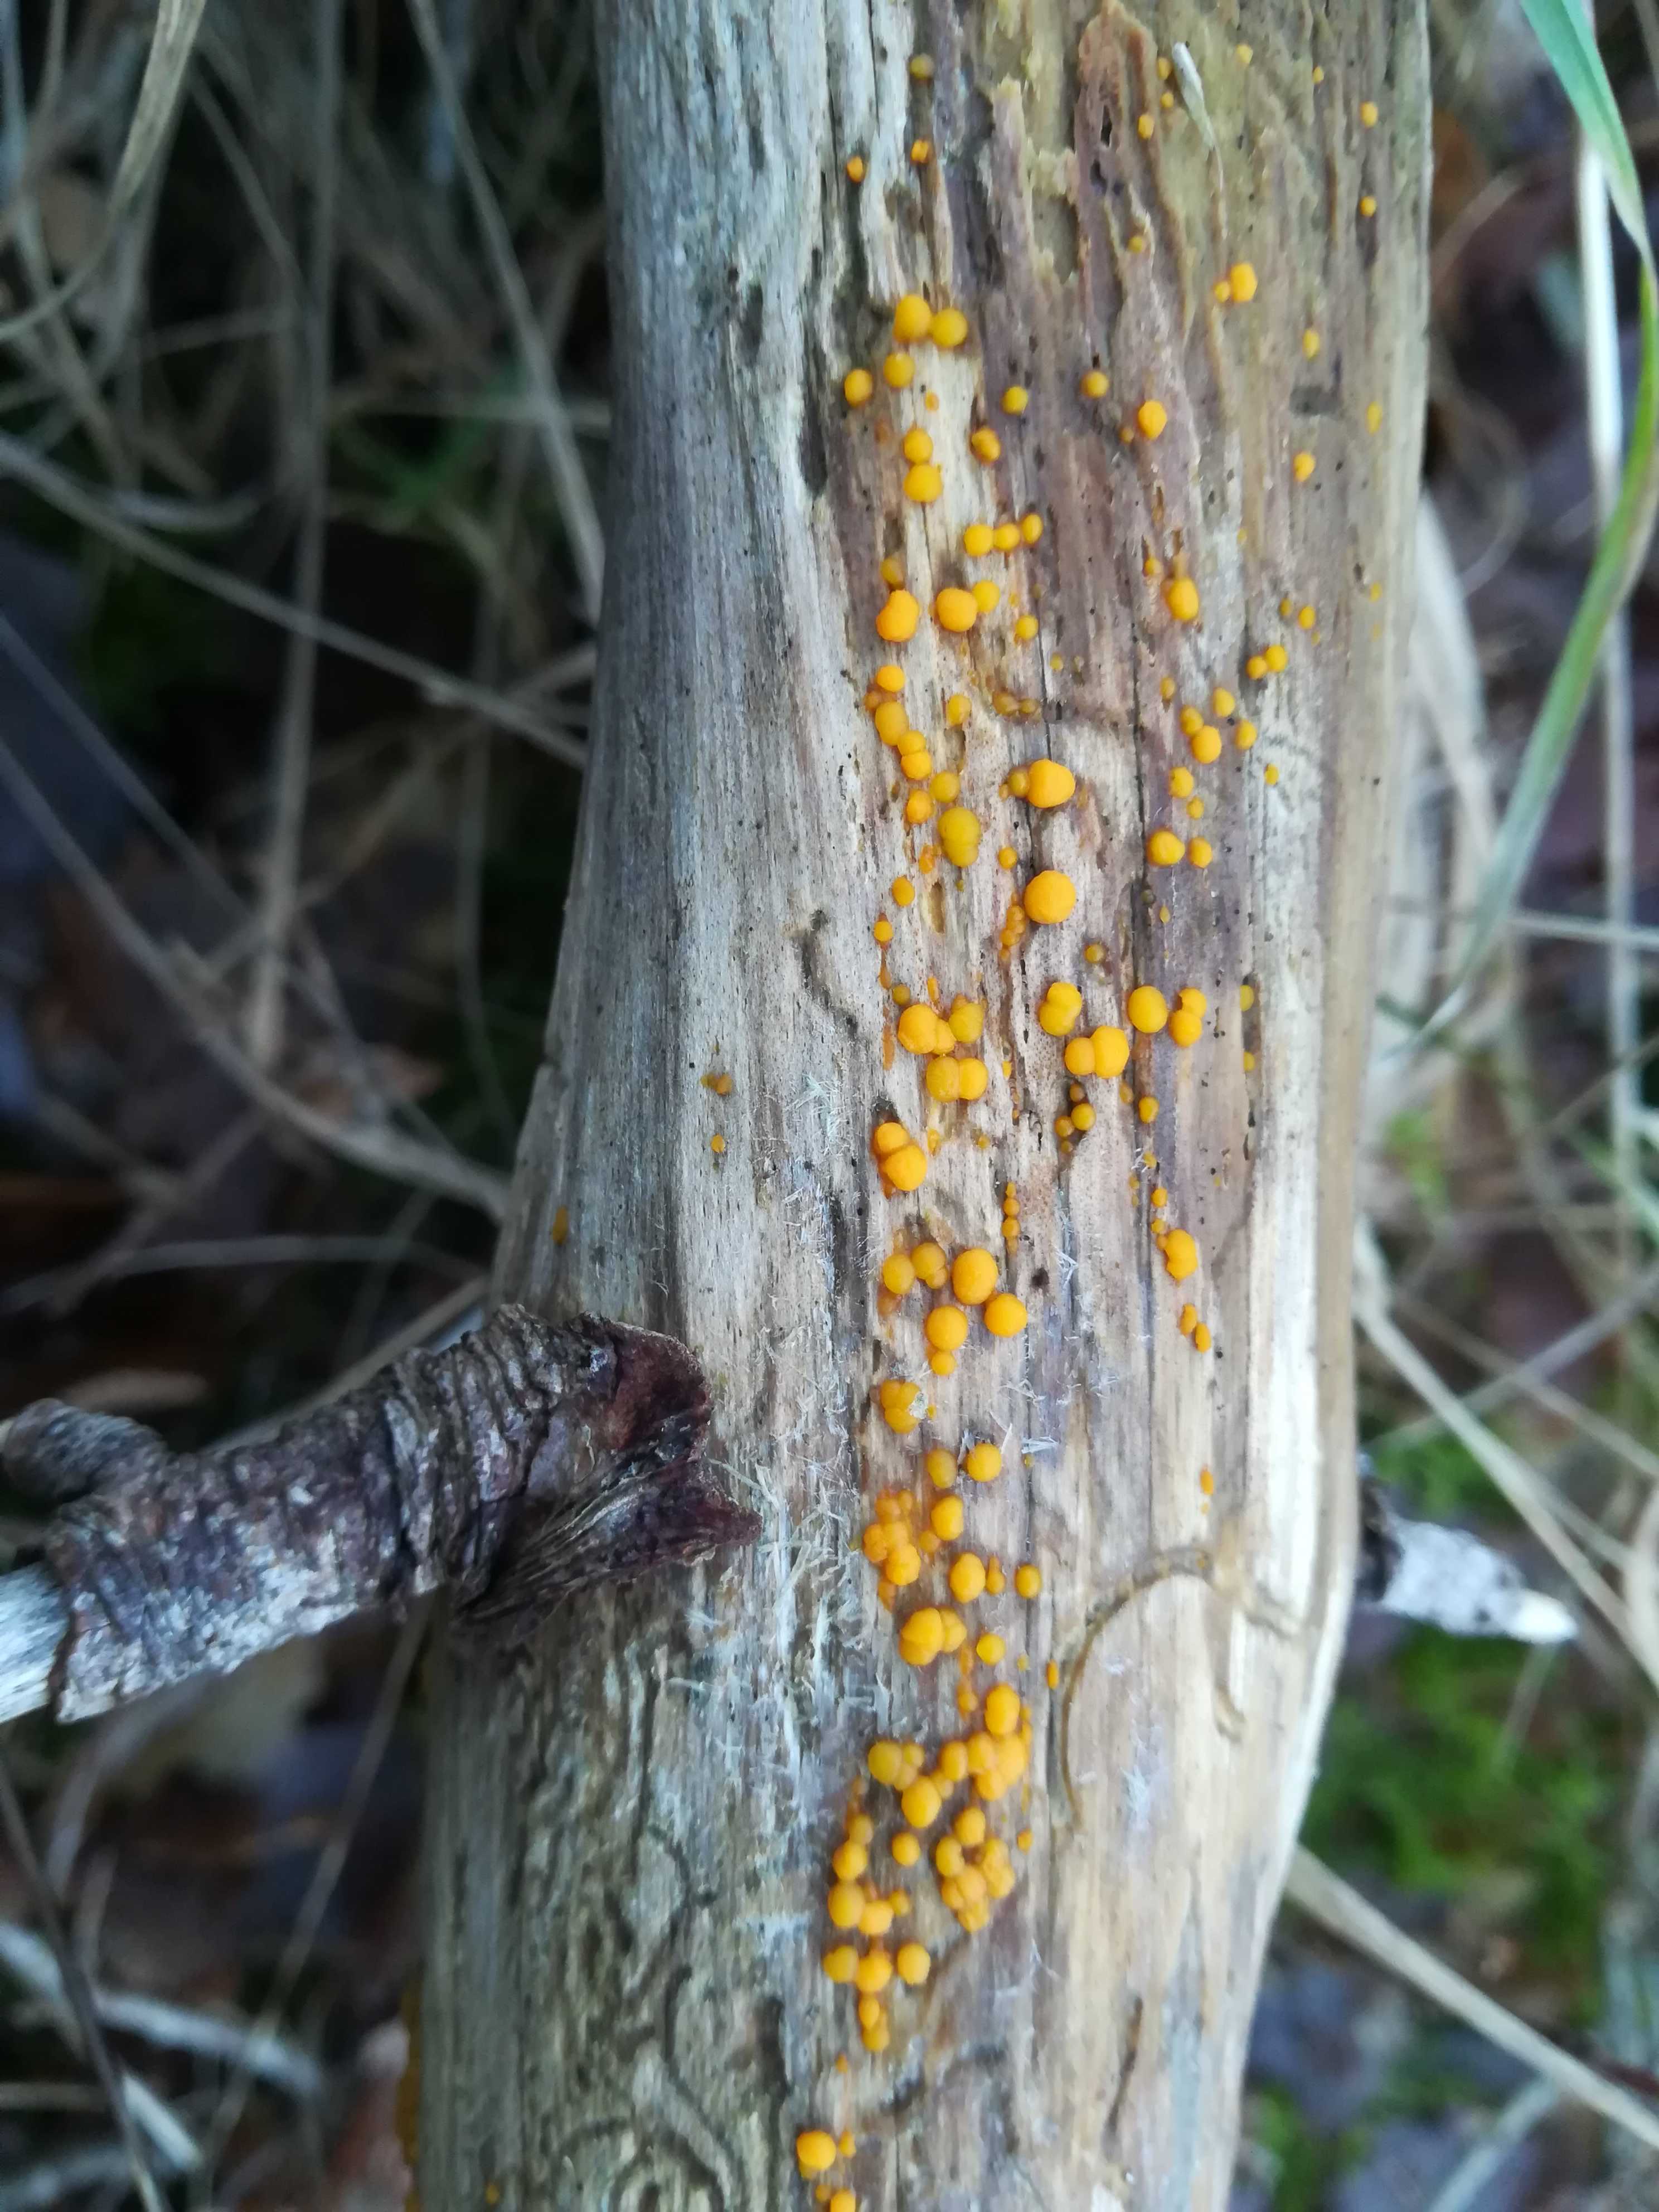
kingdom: Fungi
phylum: Basidiomycota
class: Dacrymycetes
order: Dacrymycetales
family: Dacrymycetaceae
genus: Dacrymyces
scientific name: Dacrymyces stillatus
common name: almindelig tåresvamp
